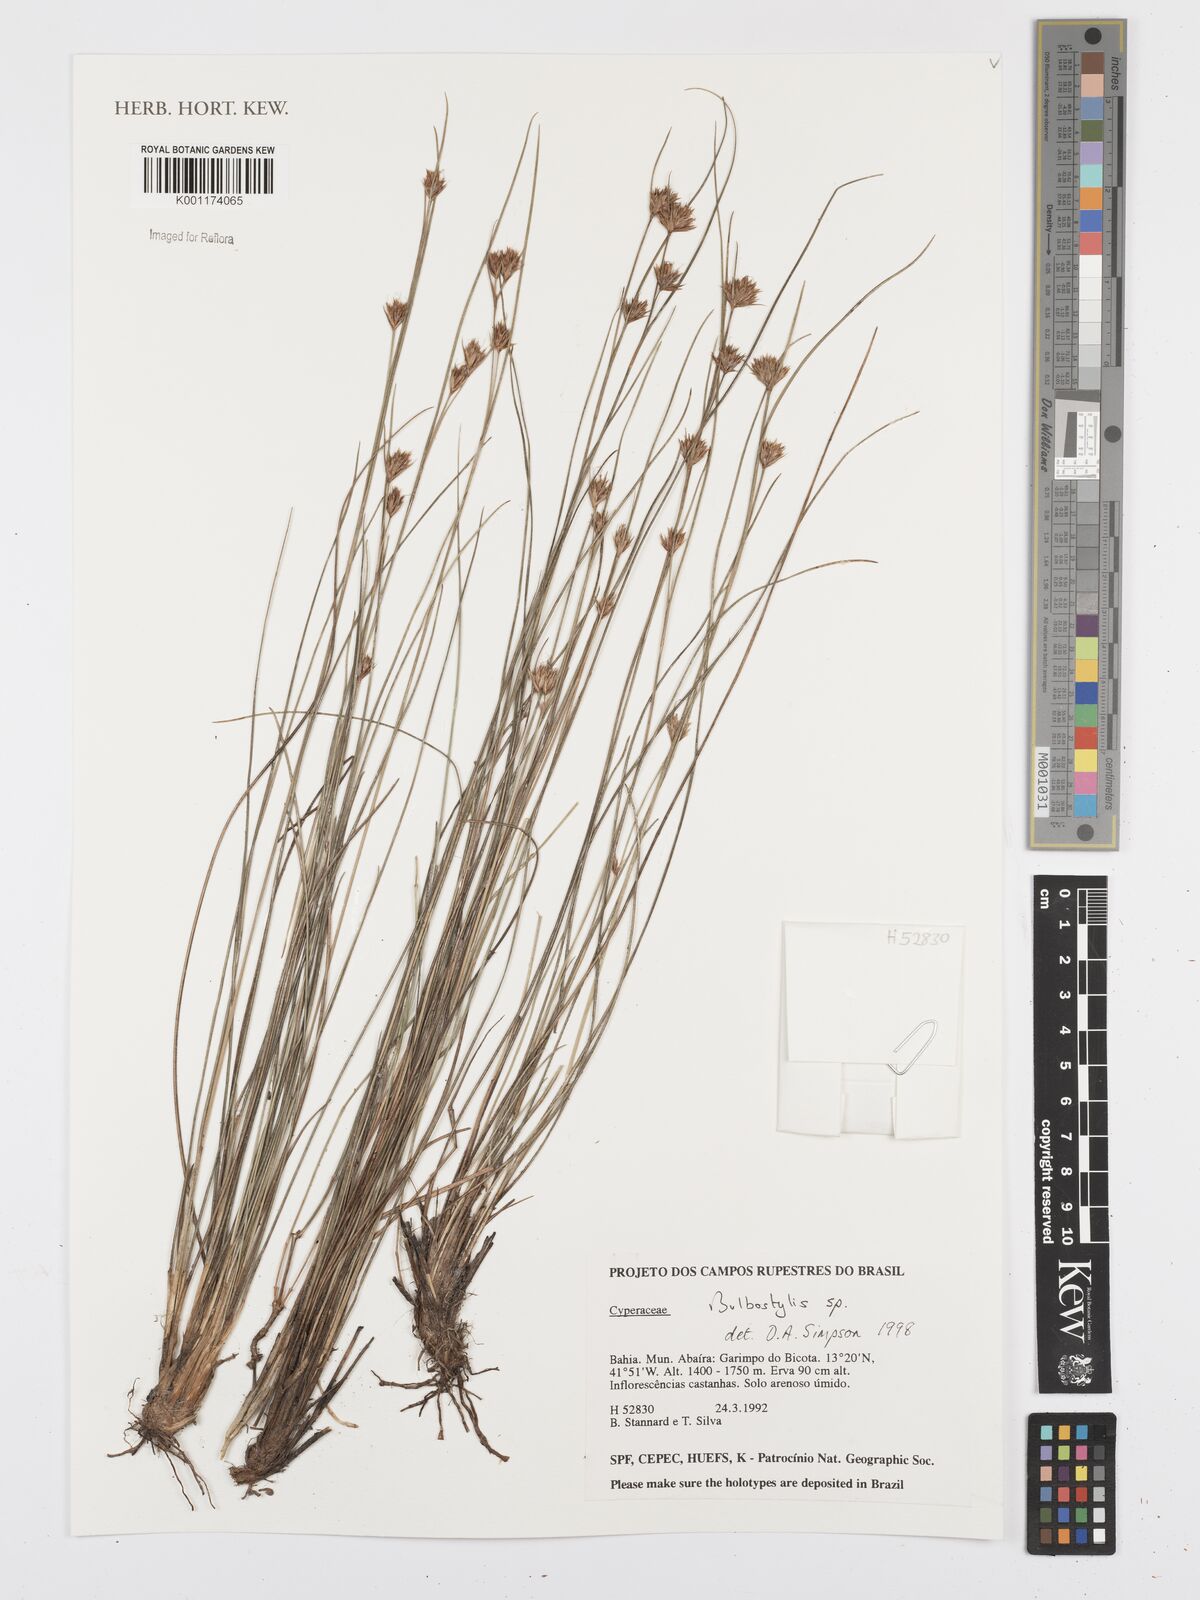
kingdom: Plantae
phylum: Tracheophyta
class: Liliopsida
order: Poales
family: Cyperaceae
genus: Bulbostylis
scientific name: Bulbostylis
